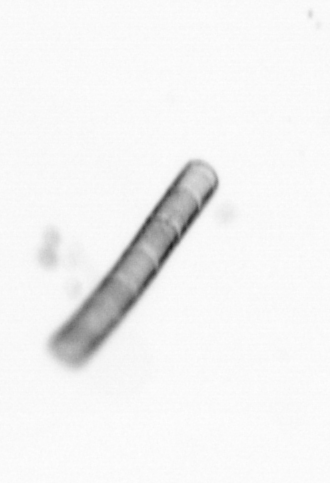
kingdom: Chromista
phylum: Ochrophyta
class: Bacillariophyceae
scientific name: Bacillariophyceae
